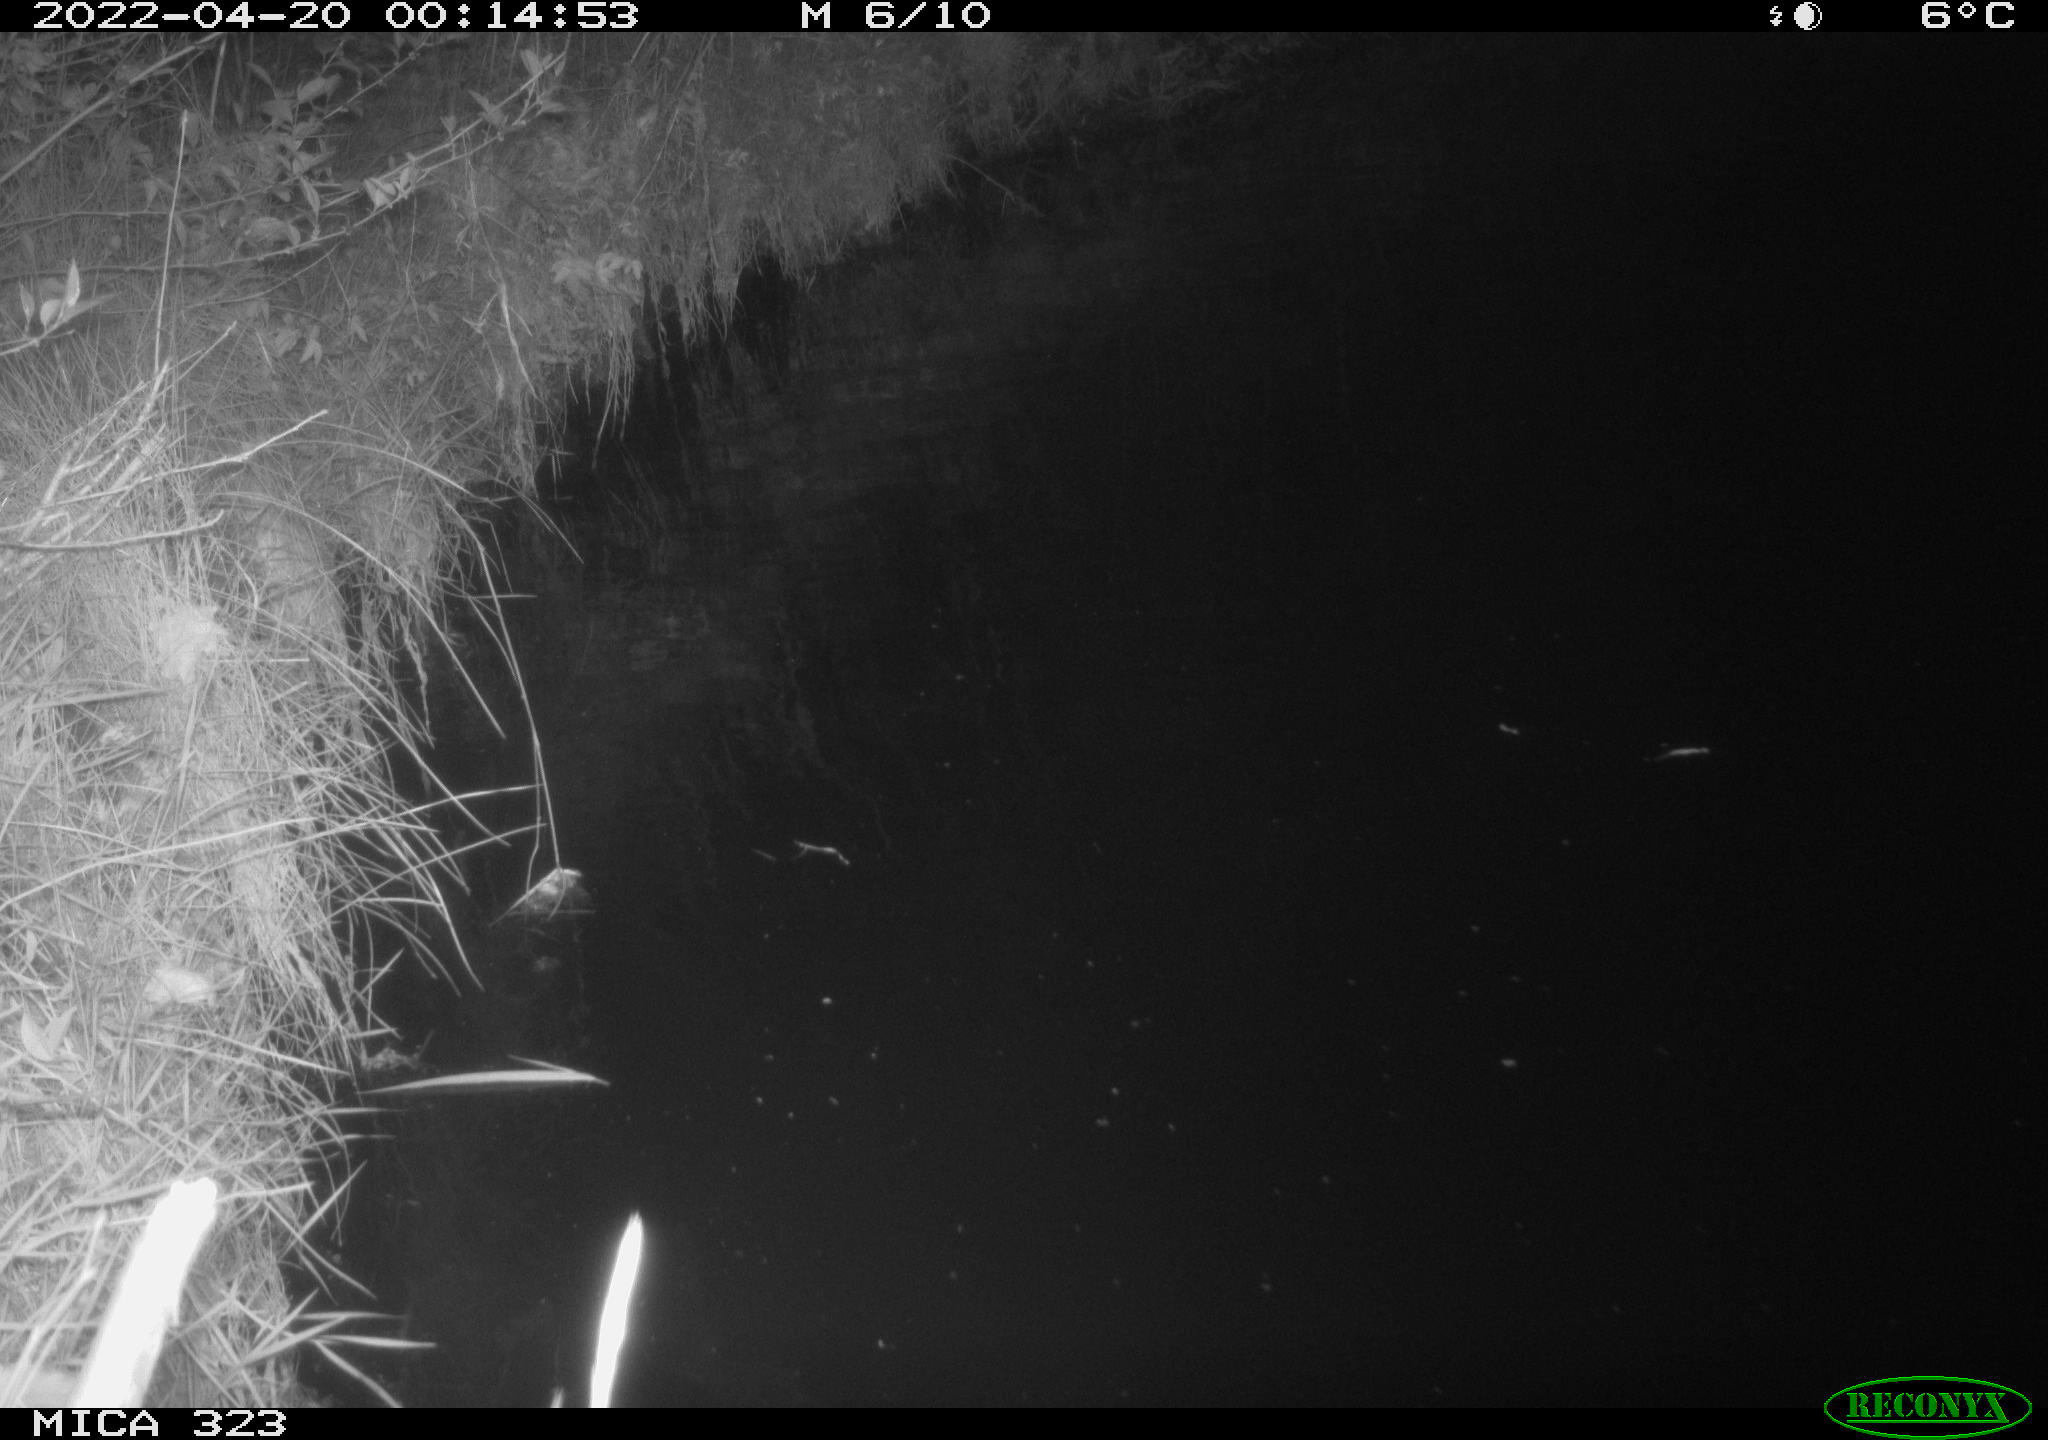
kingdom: Animalia
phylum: Chordata
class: Aves
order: Anseriformes
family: Anatidae
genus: Anas
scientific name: Anas
